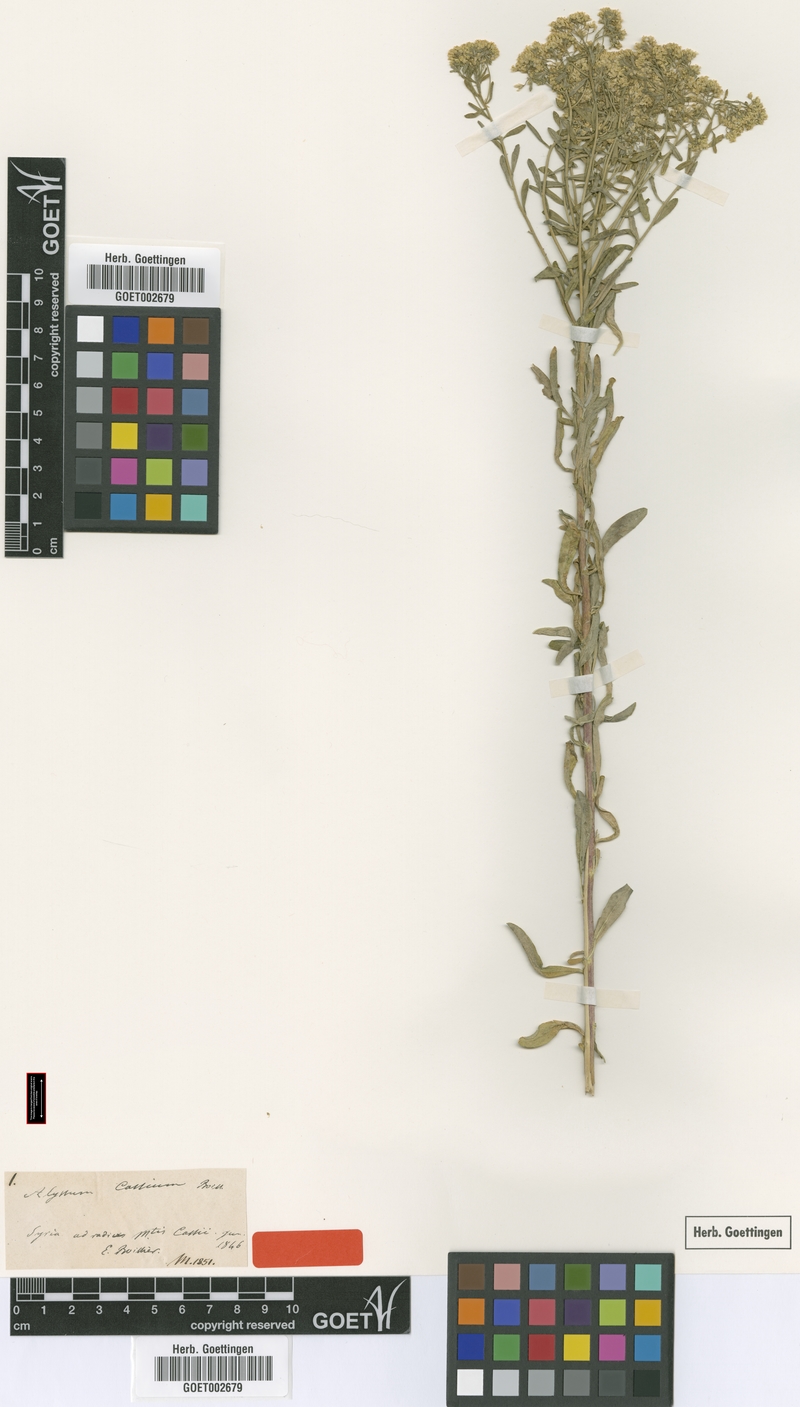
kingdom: Plantae
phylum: Tracheophyta
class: Magnoliopsida
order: Brassicales
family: Brassicaceae
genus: Odontarrhena
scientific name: Odontarrhena cassia
